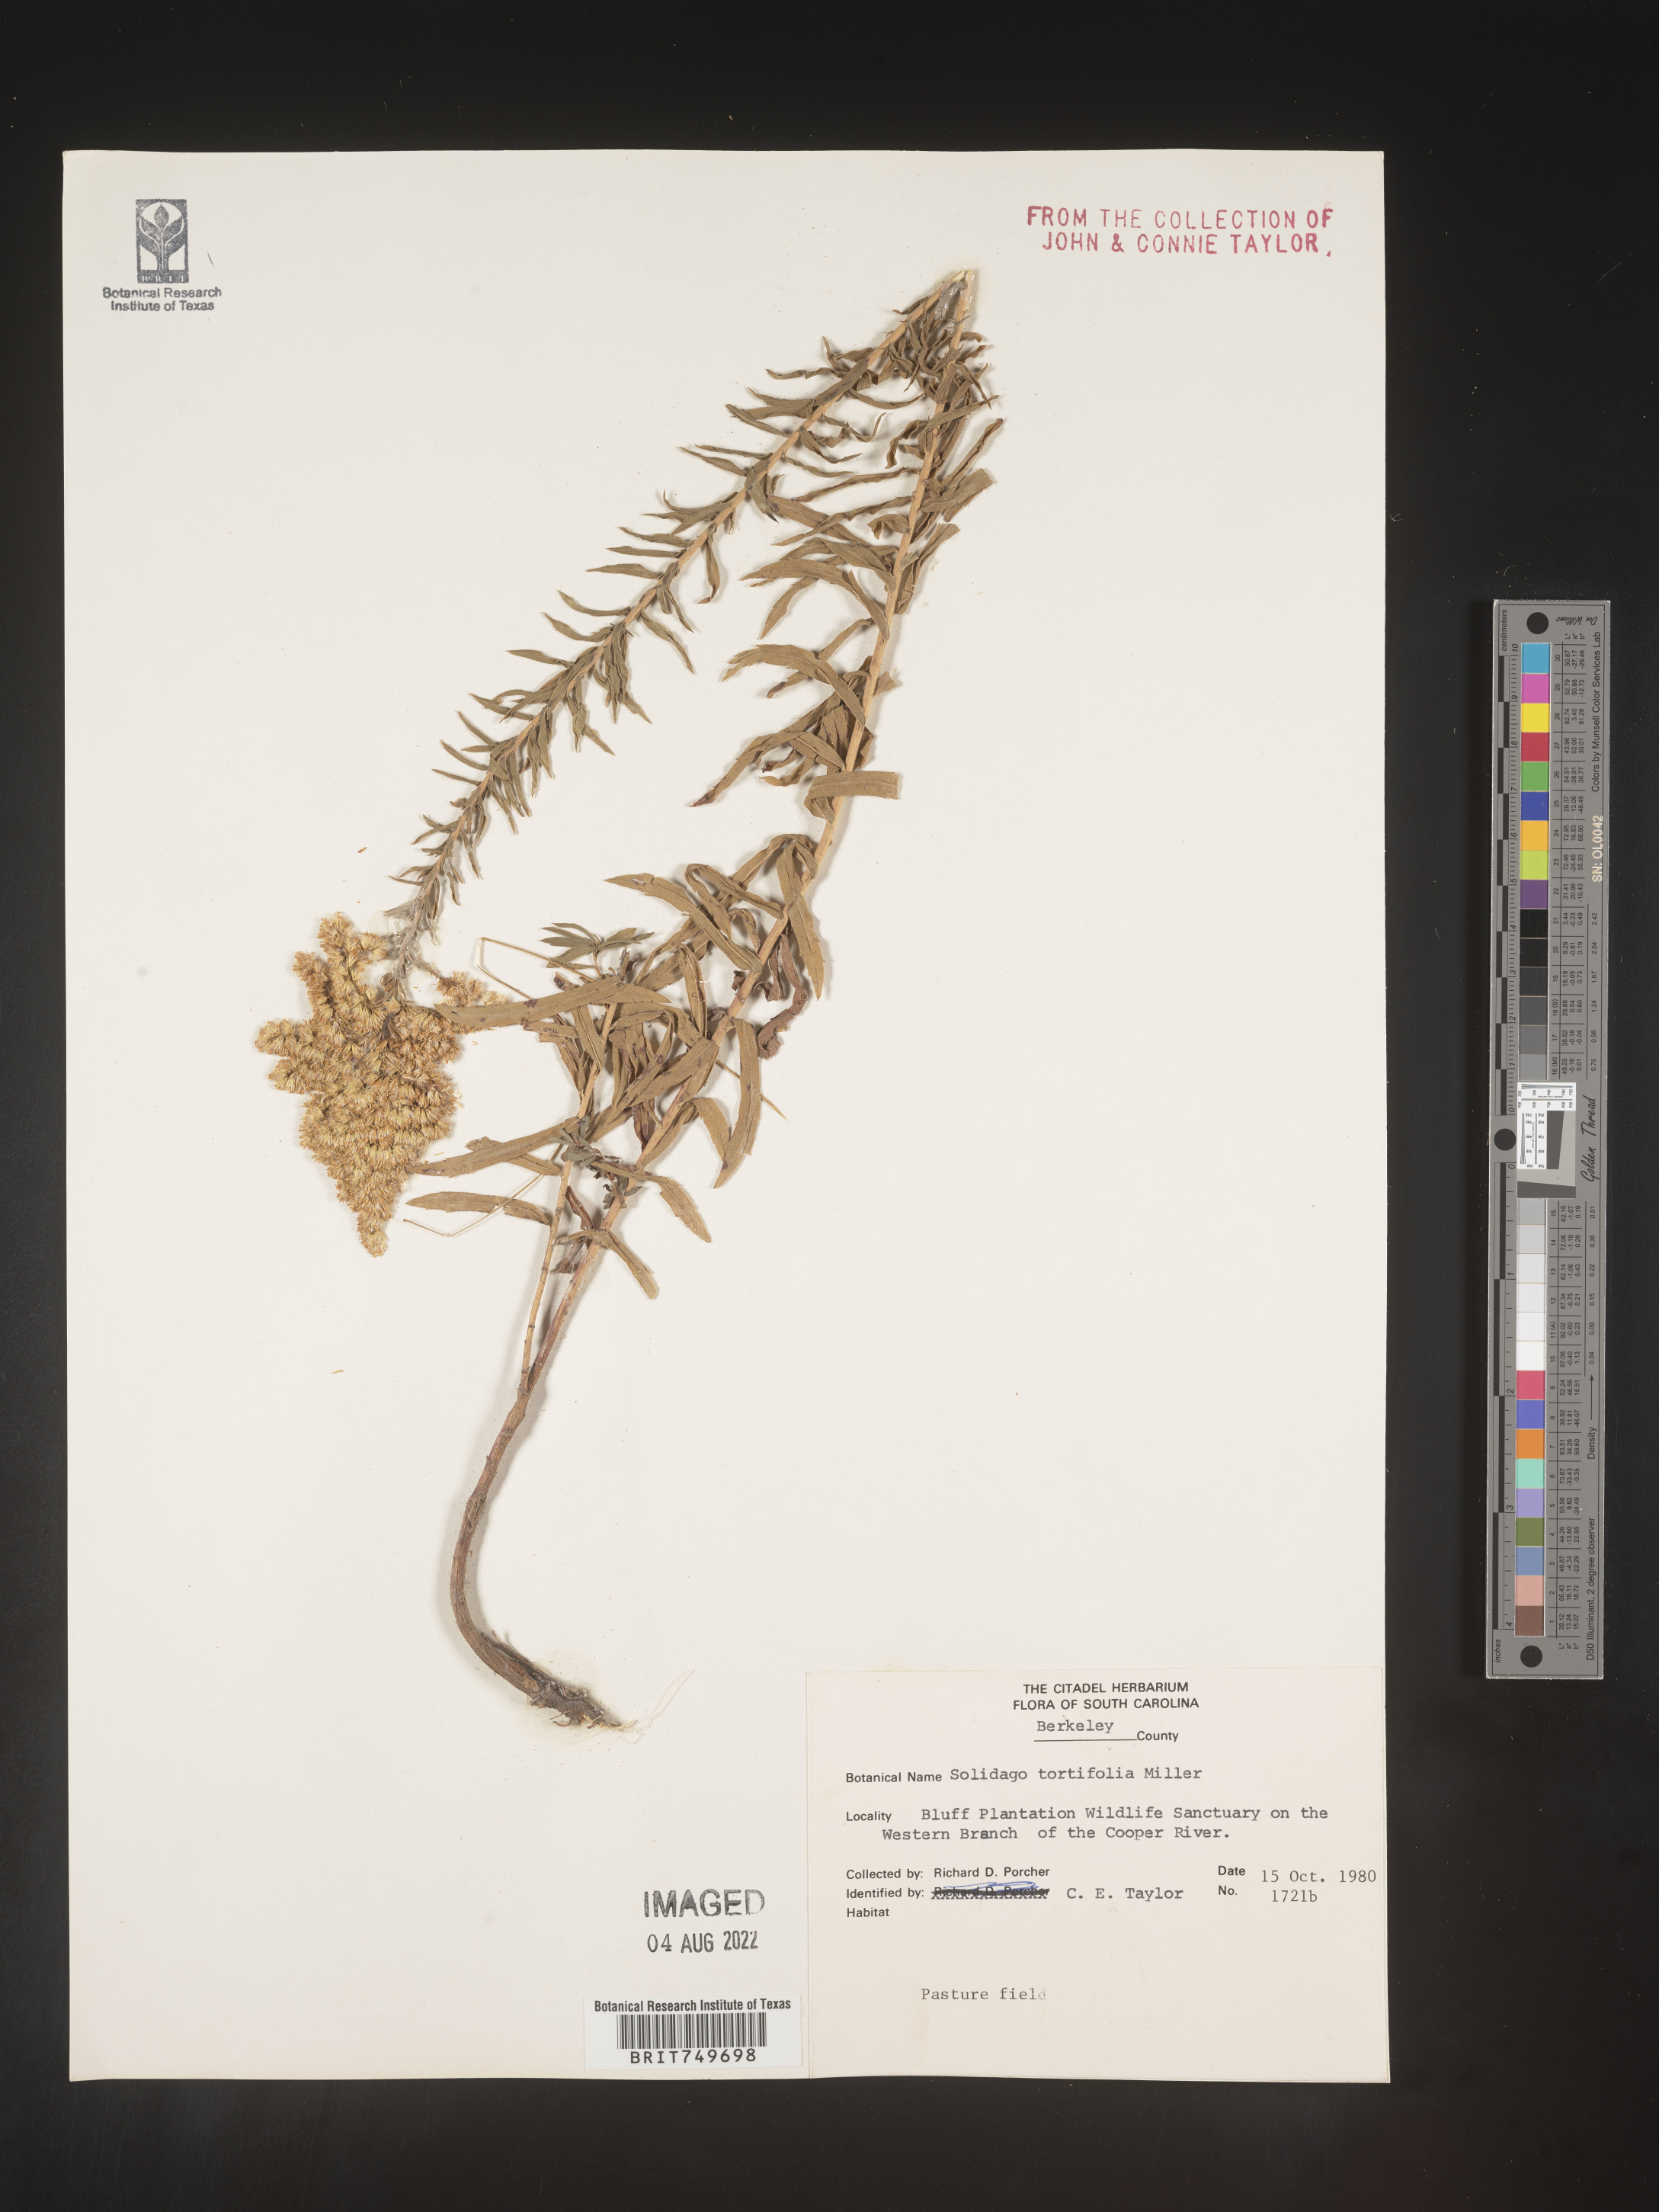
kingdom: Plantae
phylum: Tracheophyta
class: Magnoliopsida
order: Asterales
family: Asteraceae
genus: Solidago
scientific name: Solidago tortifolia
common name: Twisted-leaf goldenrod
